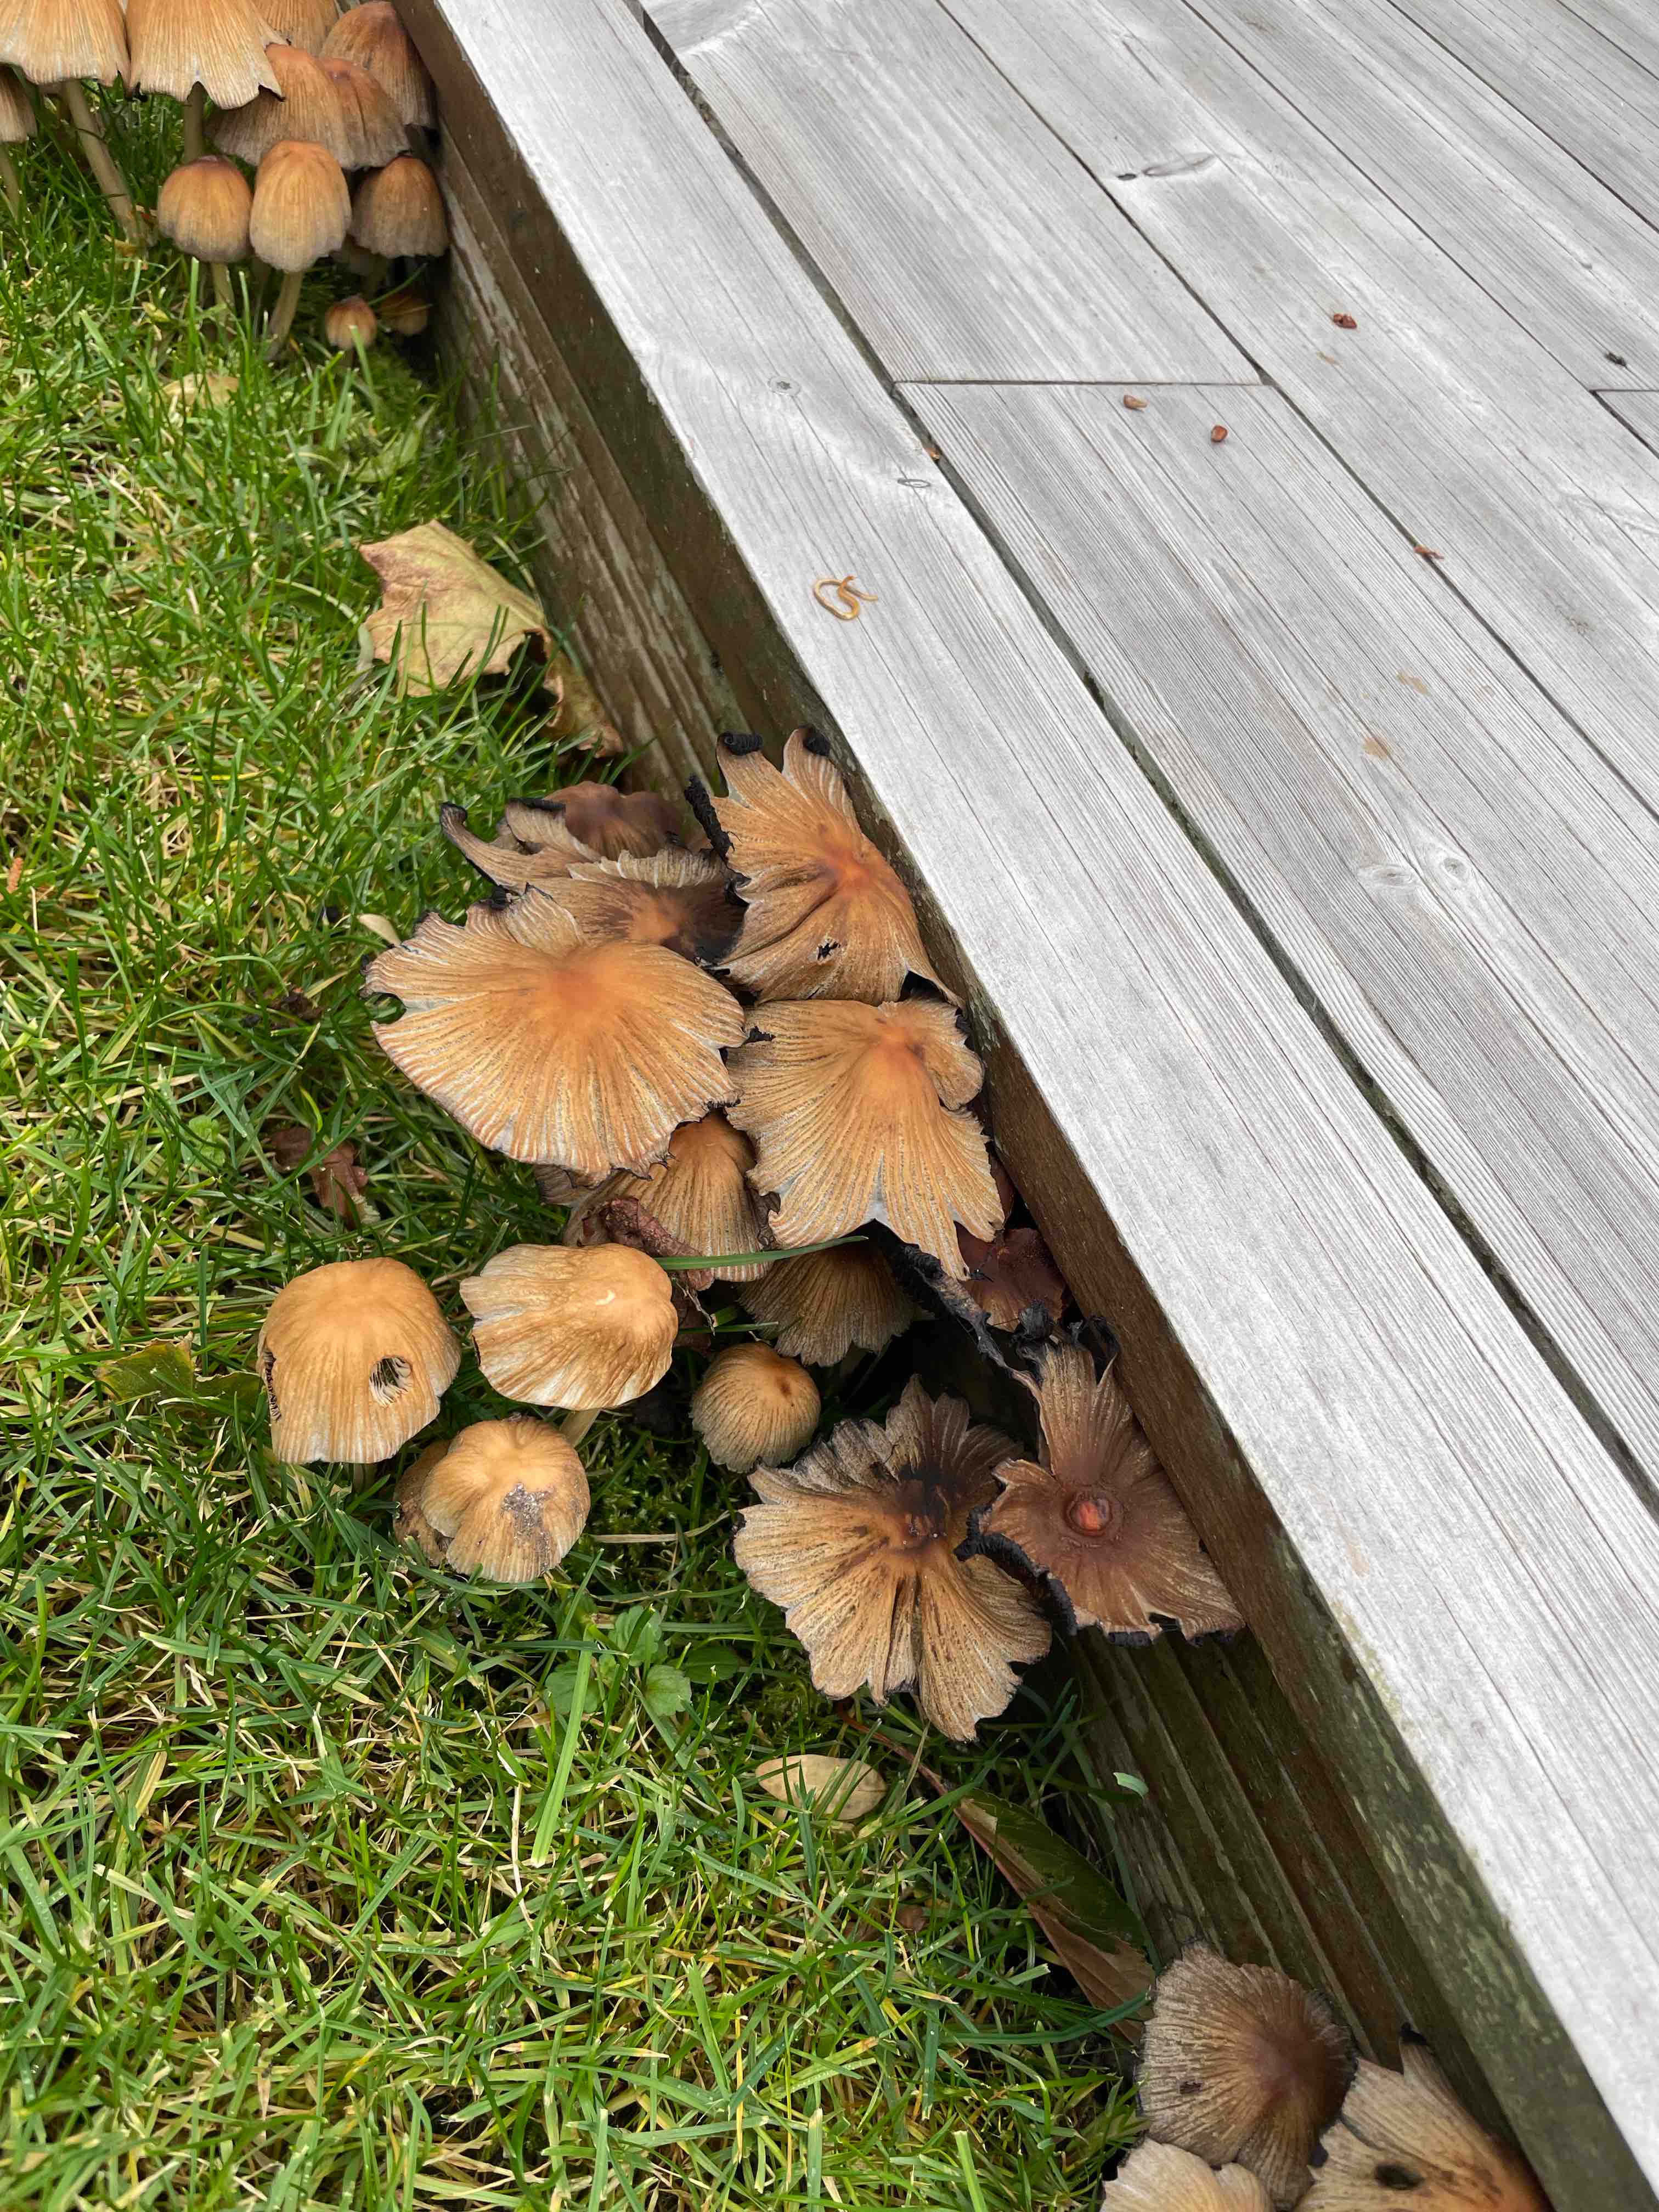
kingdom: Fungi
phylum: Basidiomycota
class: Agaricomycetes
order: Agaricales
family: Psathyrellaceae
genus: Coprinellus
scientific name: Coprinellus
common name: blækhat
